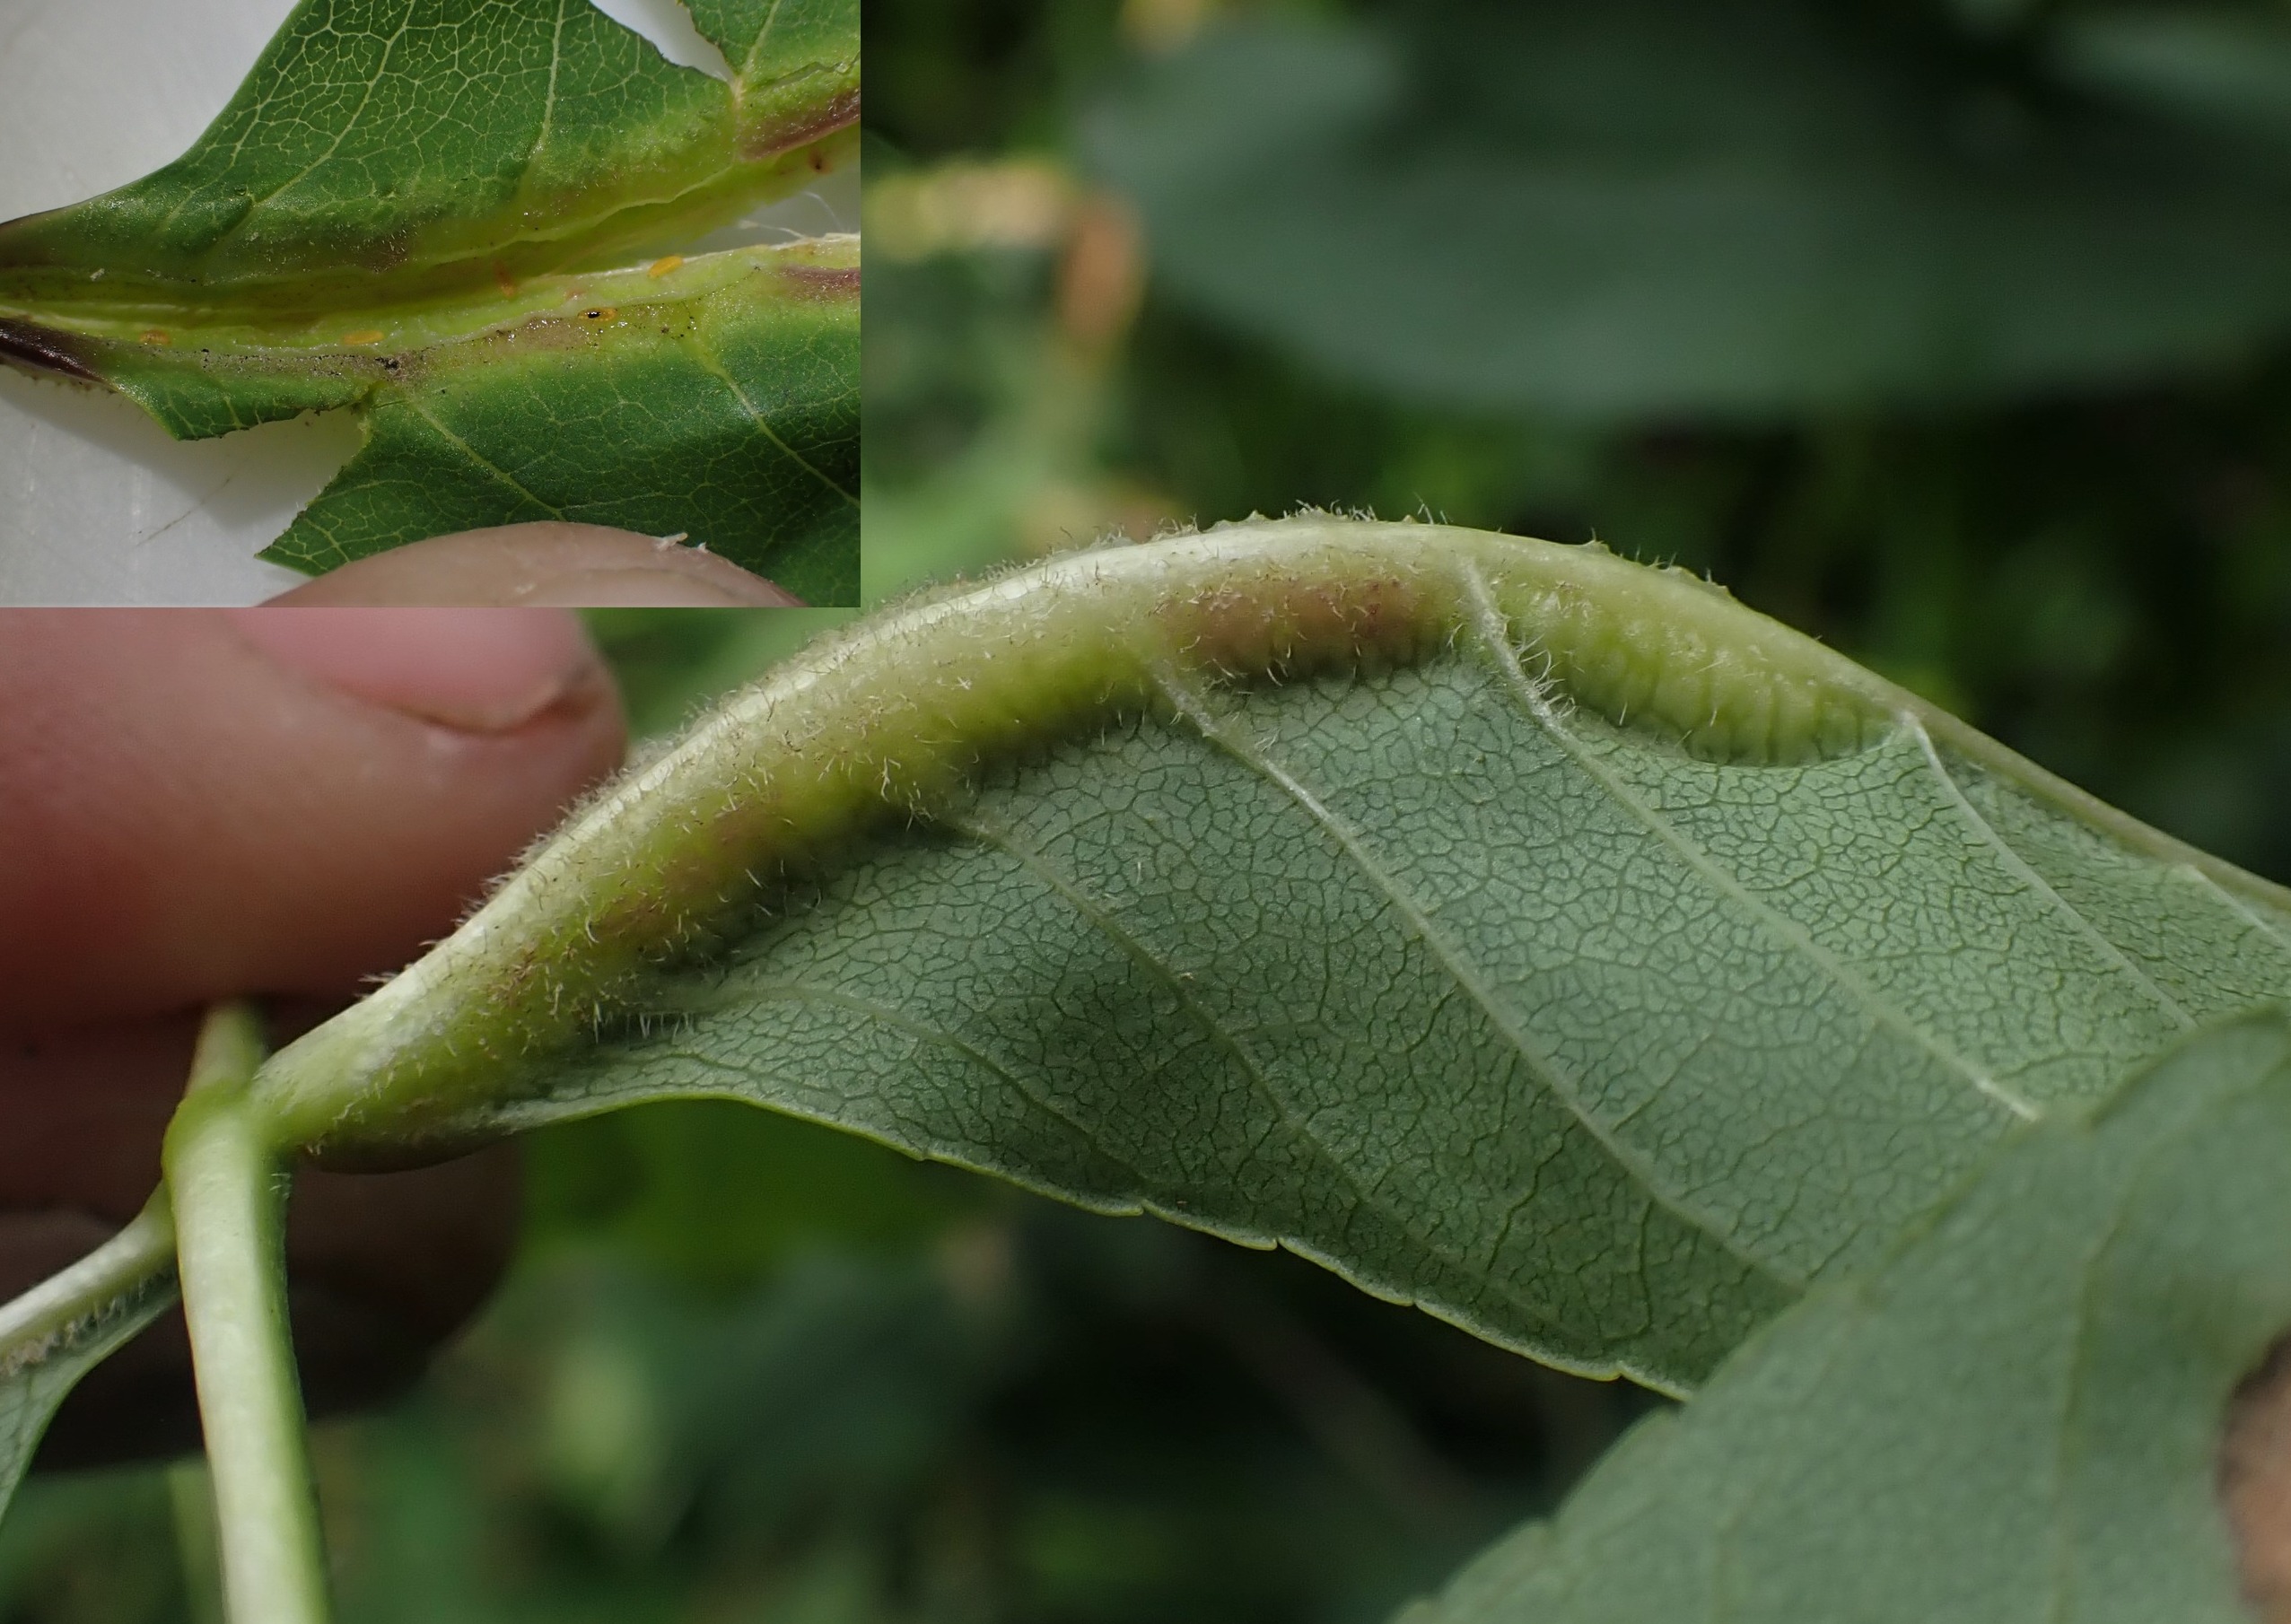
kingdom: Animalia
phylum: Arthropoda
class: Insecta
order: Diptera
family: Cecidomyiidae
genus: Dasineura
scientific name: Dasineura fraxini
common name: Orange askebladgalmyg
